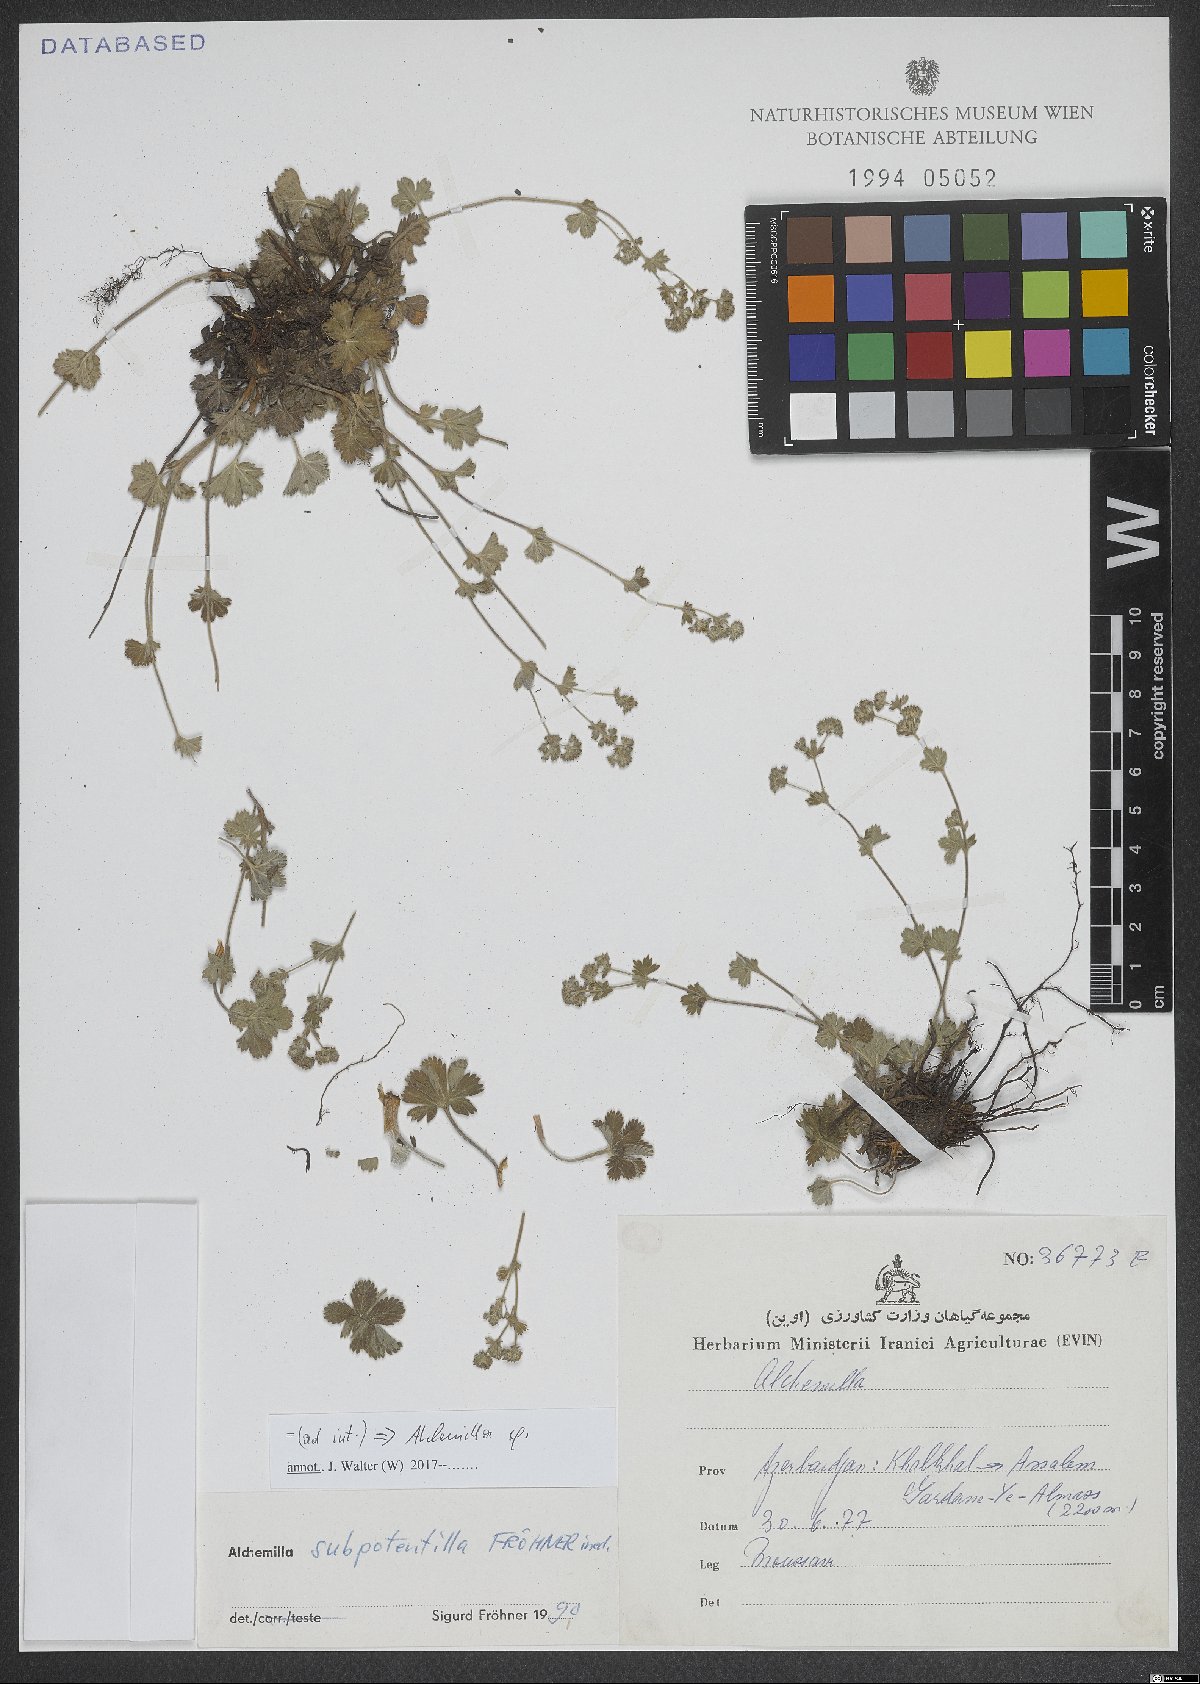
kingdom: Plantae
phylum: Tracheophyta
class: Magnoliopsida
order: Rosales
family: Rosaceae
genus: Alchemilla
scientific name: Alchemilla
